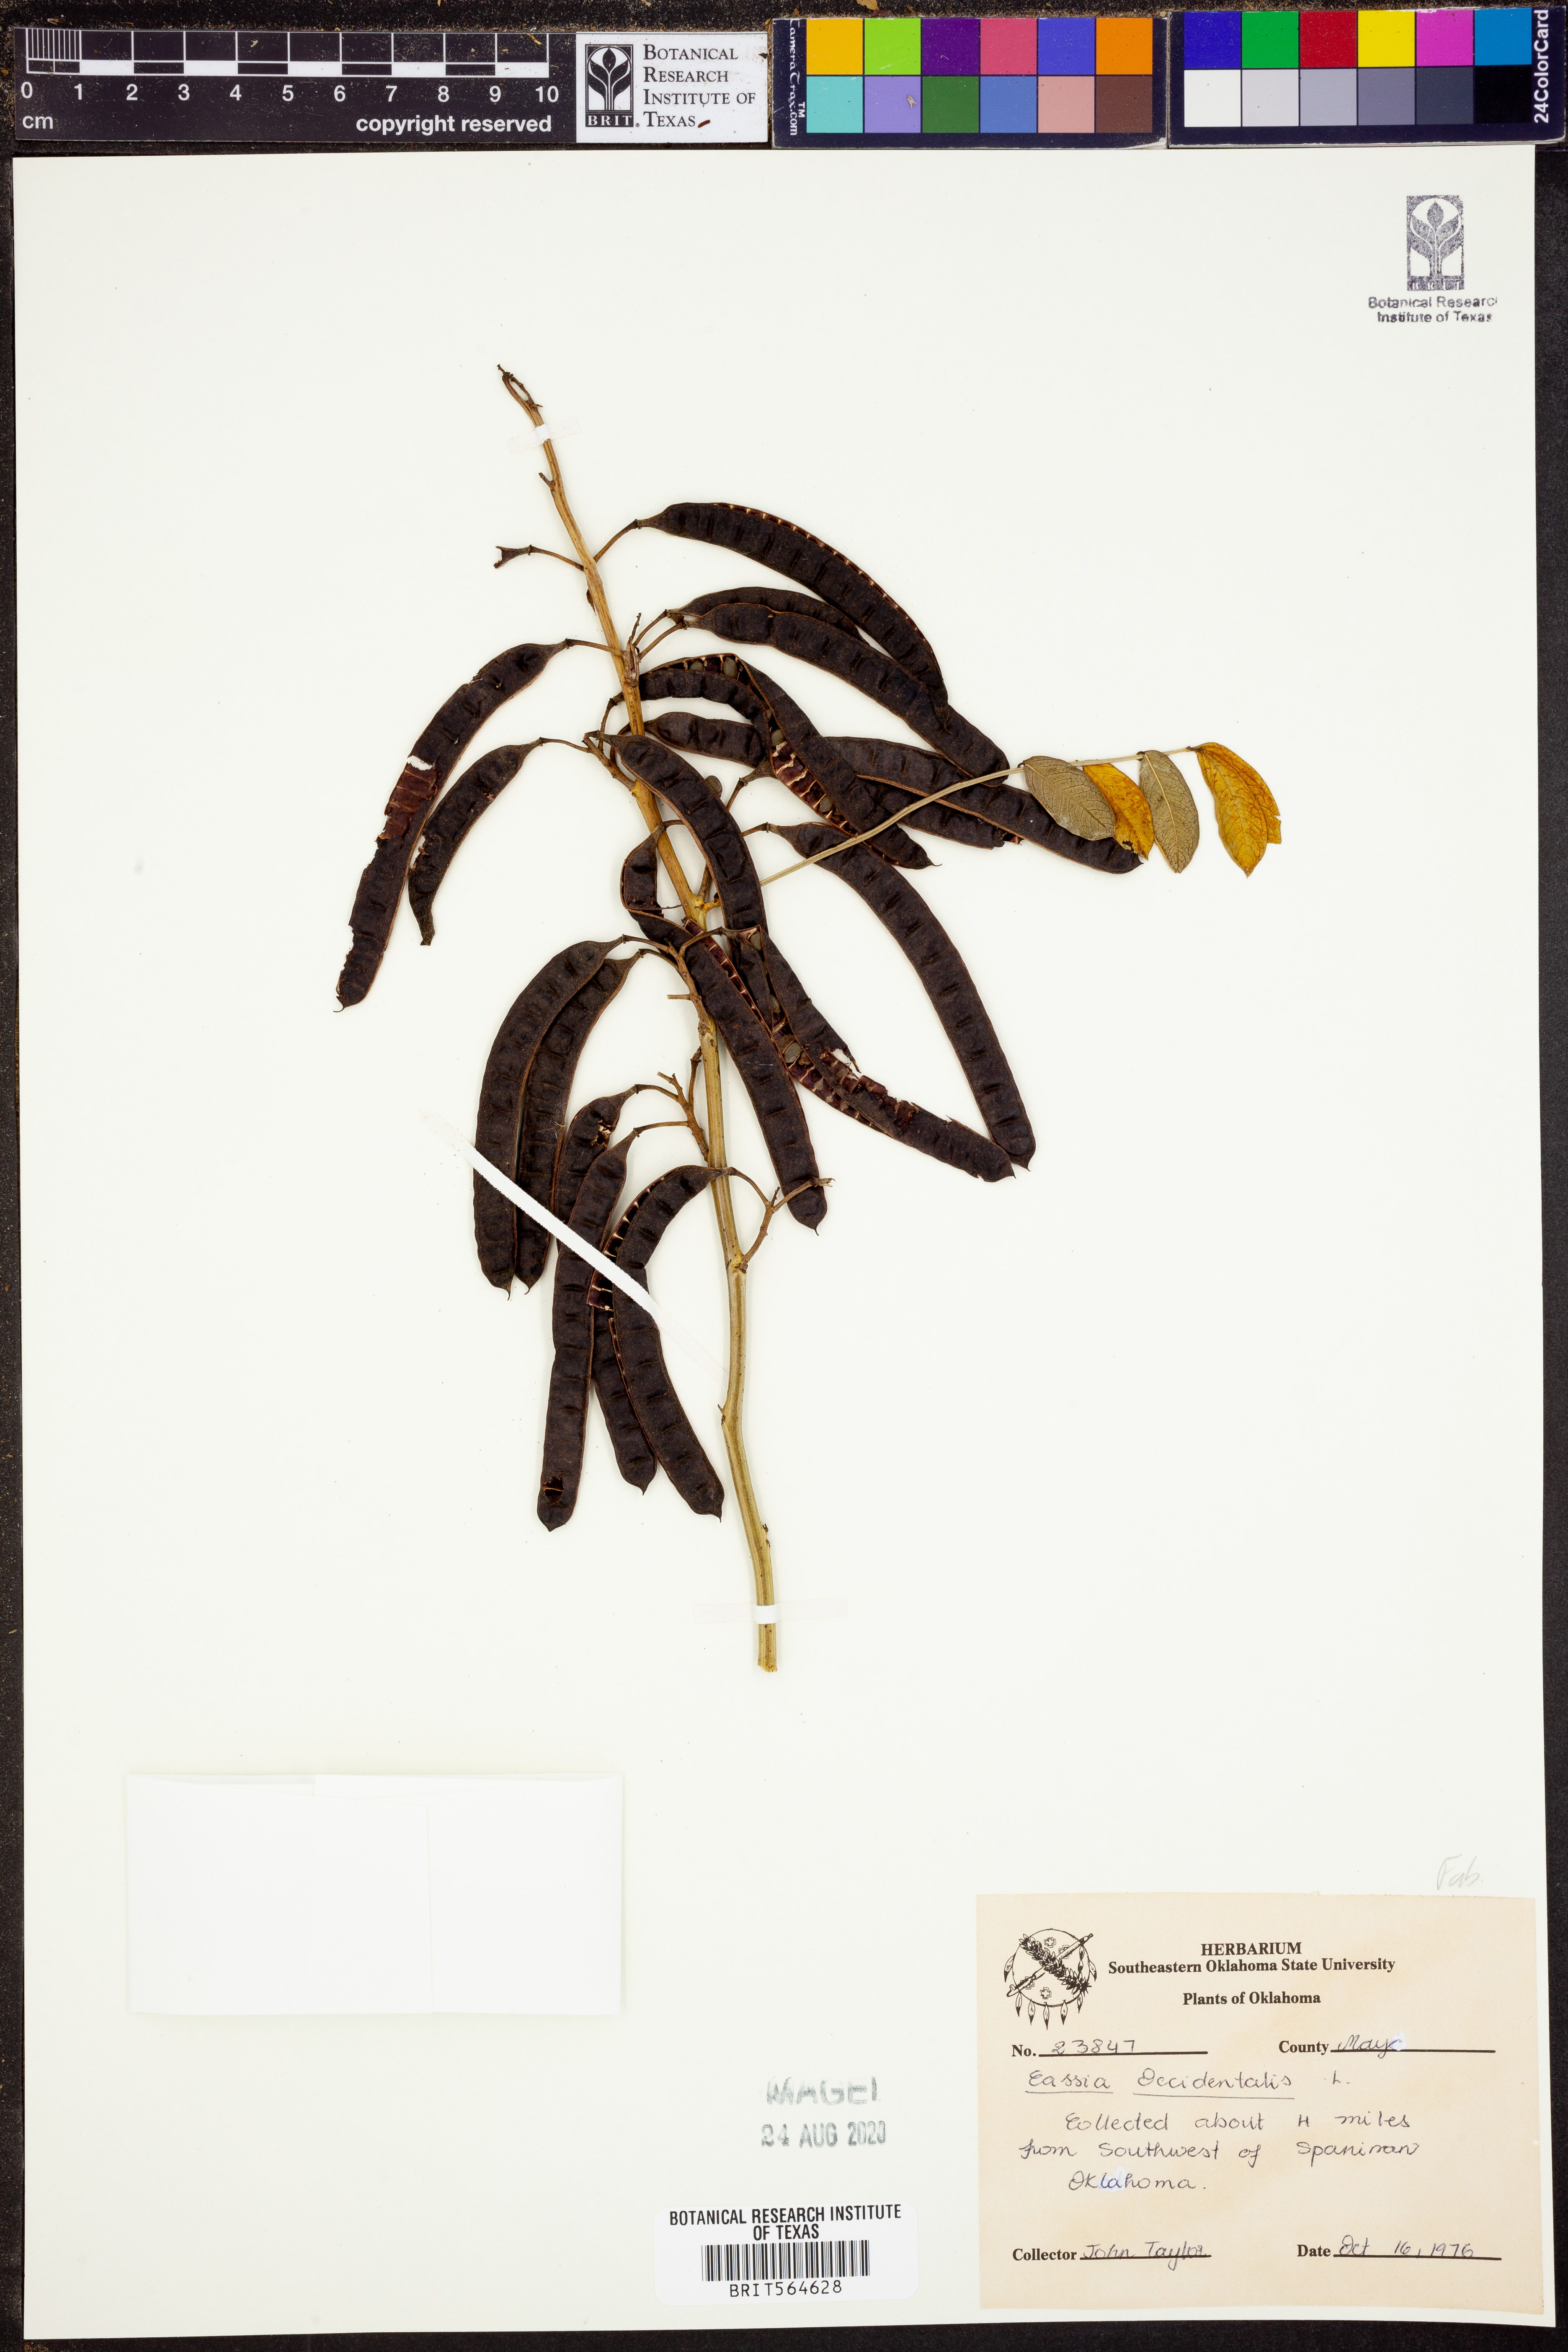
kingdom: Plantae
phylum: Tracheophyta
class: Magnoliopsida
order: Fabales
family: Fabaceae
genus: Senna
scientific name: Senna occidentalis
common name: Septicweed
